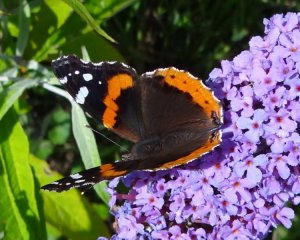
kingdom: Animalia
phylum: Arthropoda
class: Insecta
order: Lepidoptera
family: Nymphalidae
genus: Vanessa
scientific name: Vanessa atalanta
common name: Red Admiral
